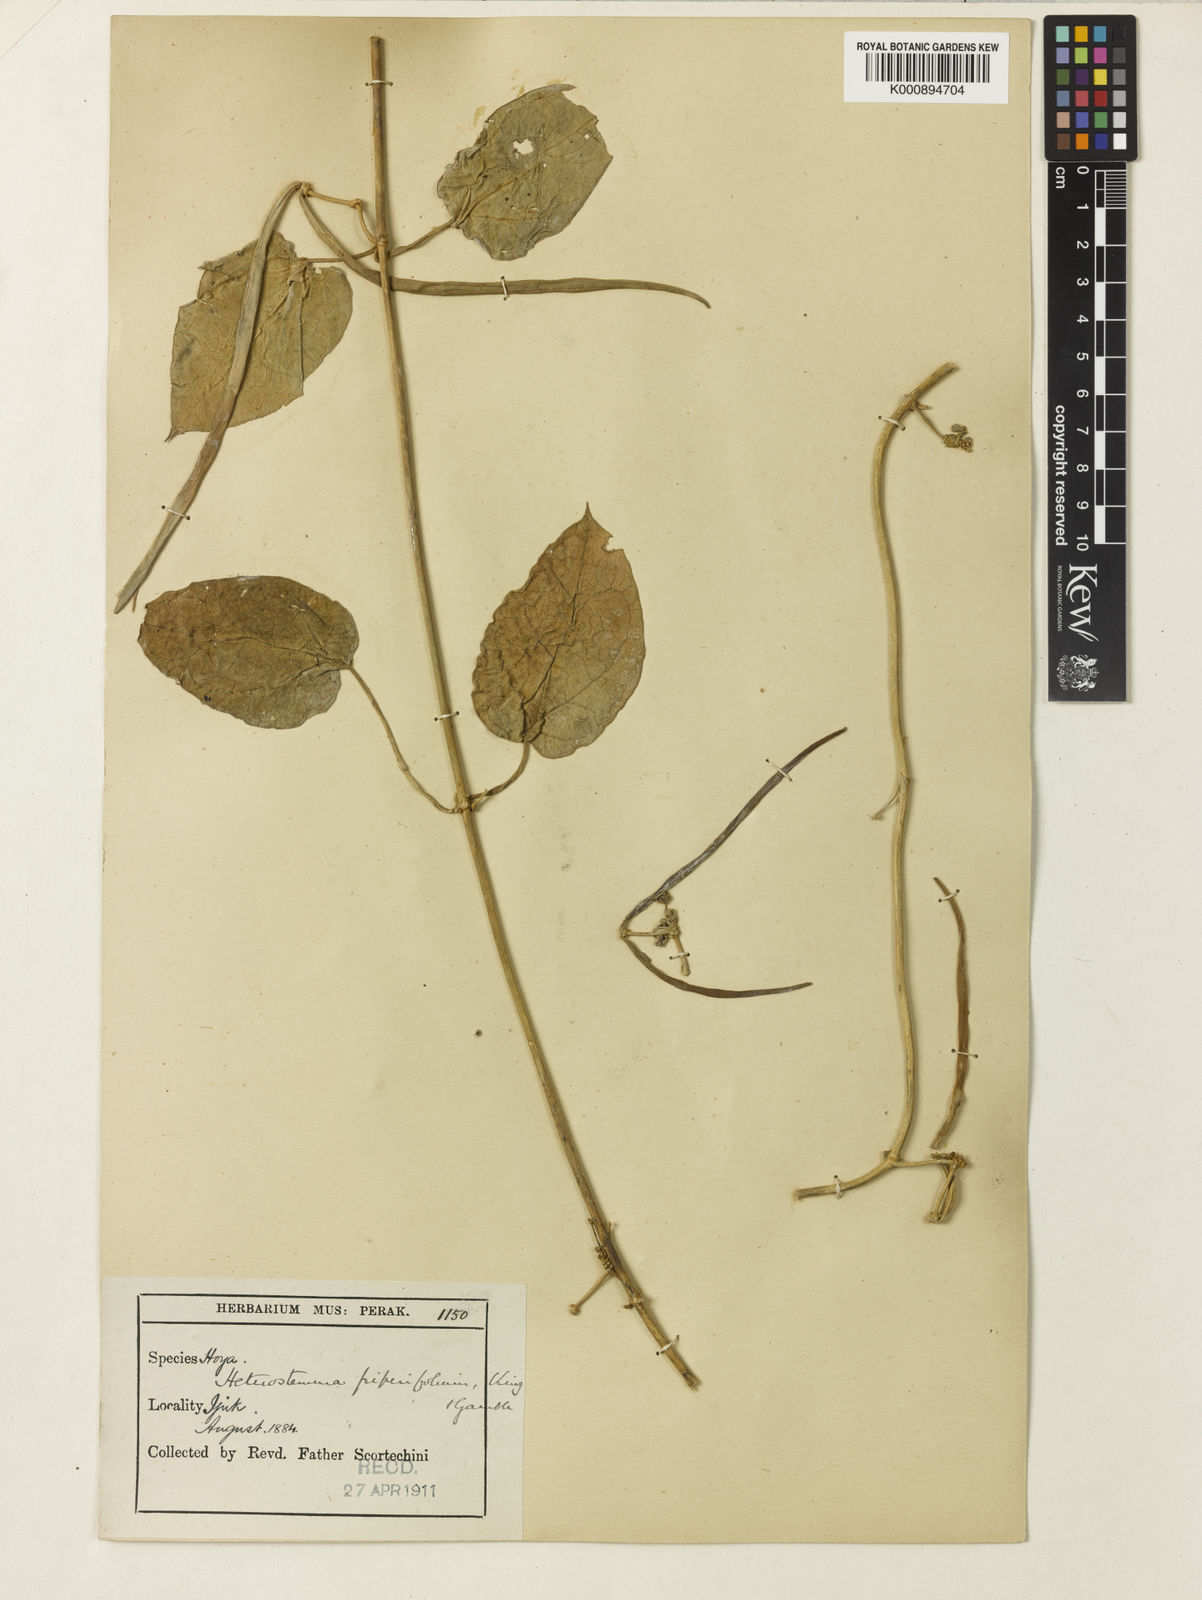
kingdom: Plantae
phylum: Tracheophyta
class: Magnoliopsida
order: Gentianales
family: Apocynaceae
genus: Heterostemma
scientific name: Heterostemma piperifolium
